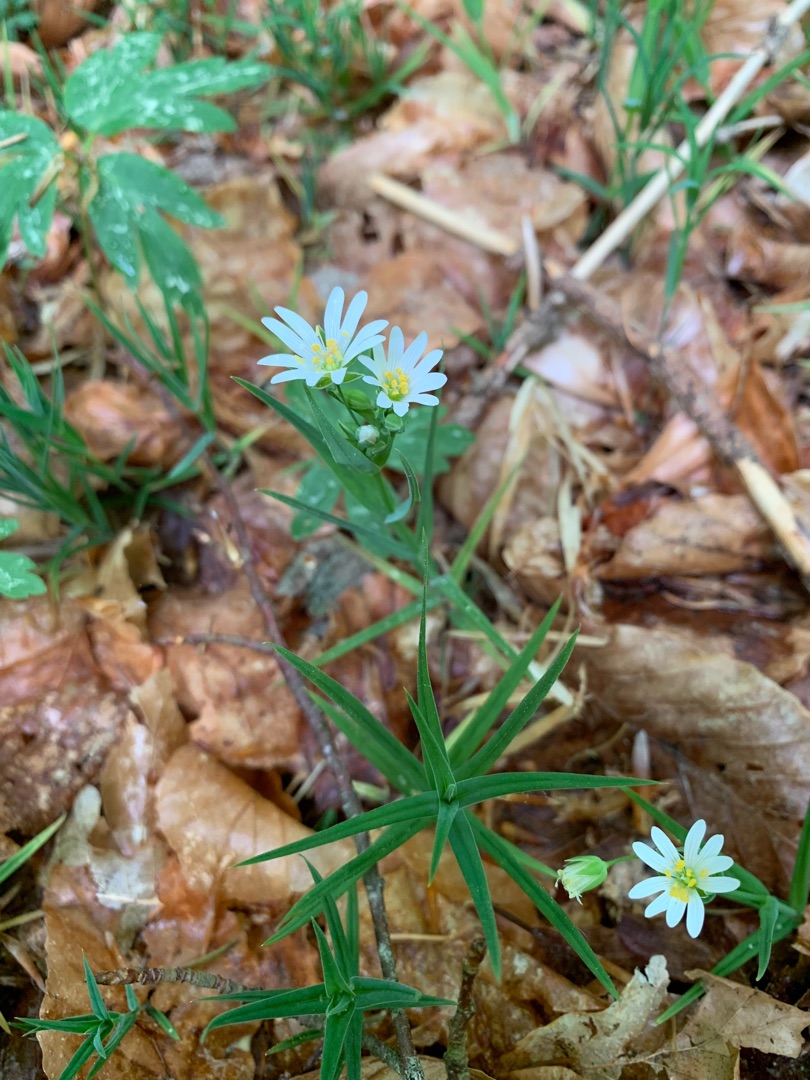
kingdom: Plantae
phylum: Tracheophyta
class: Magnoliopsida
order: Caryophyllales
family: Caryophyllaceae
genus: Rabelera
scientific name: Rabelera holostea
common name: Stor fladstjerne
